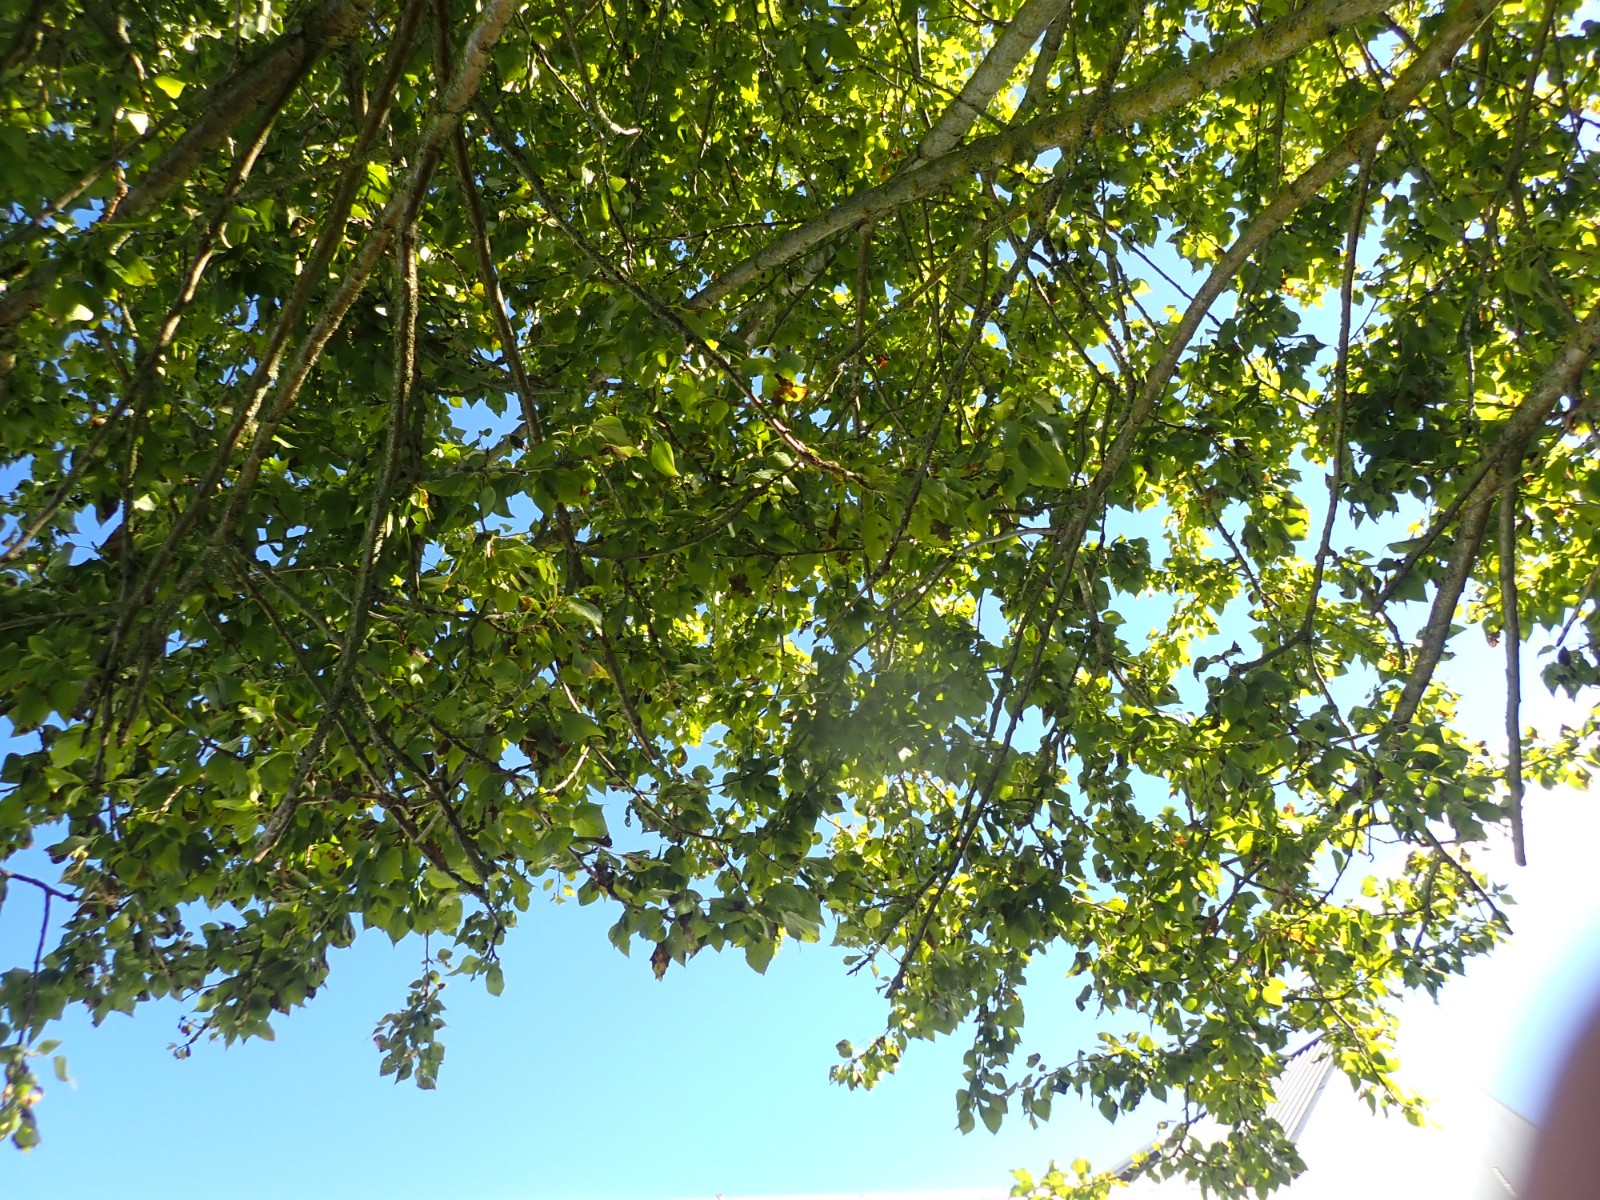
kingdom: Fungi
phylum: Basidiomycota
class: Agaricomycetes
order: Agaricales
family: Tricholomataceae
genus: Tricholoma
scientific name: Tricholoma argyraceum
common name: spids ridderhat
